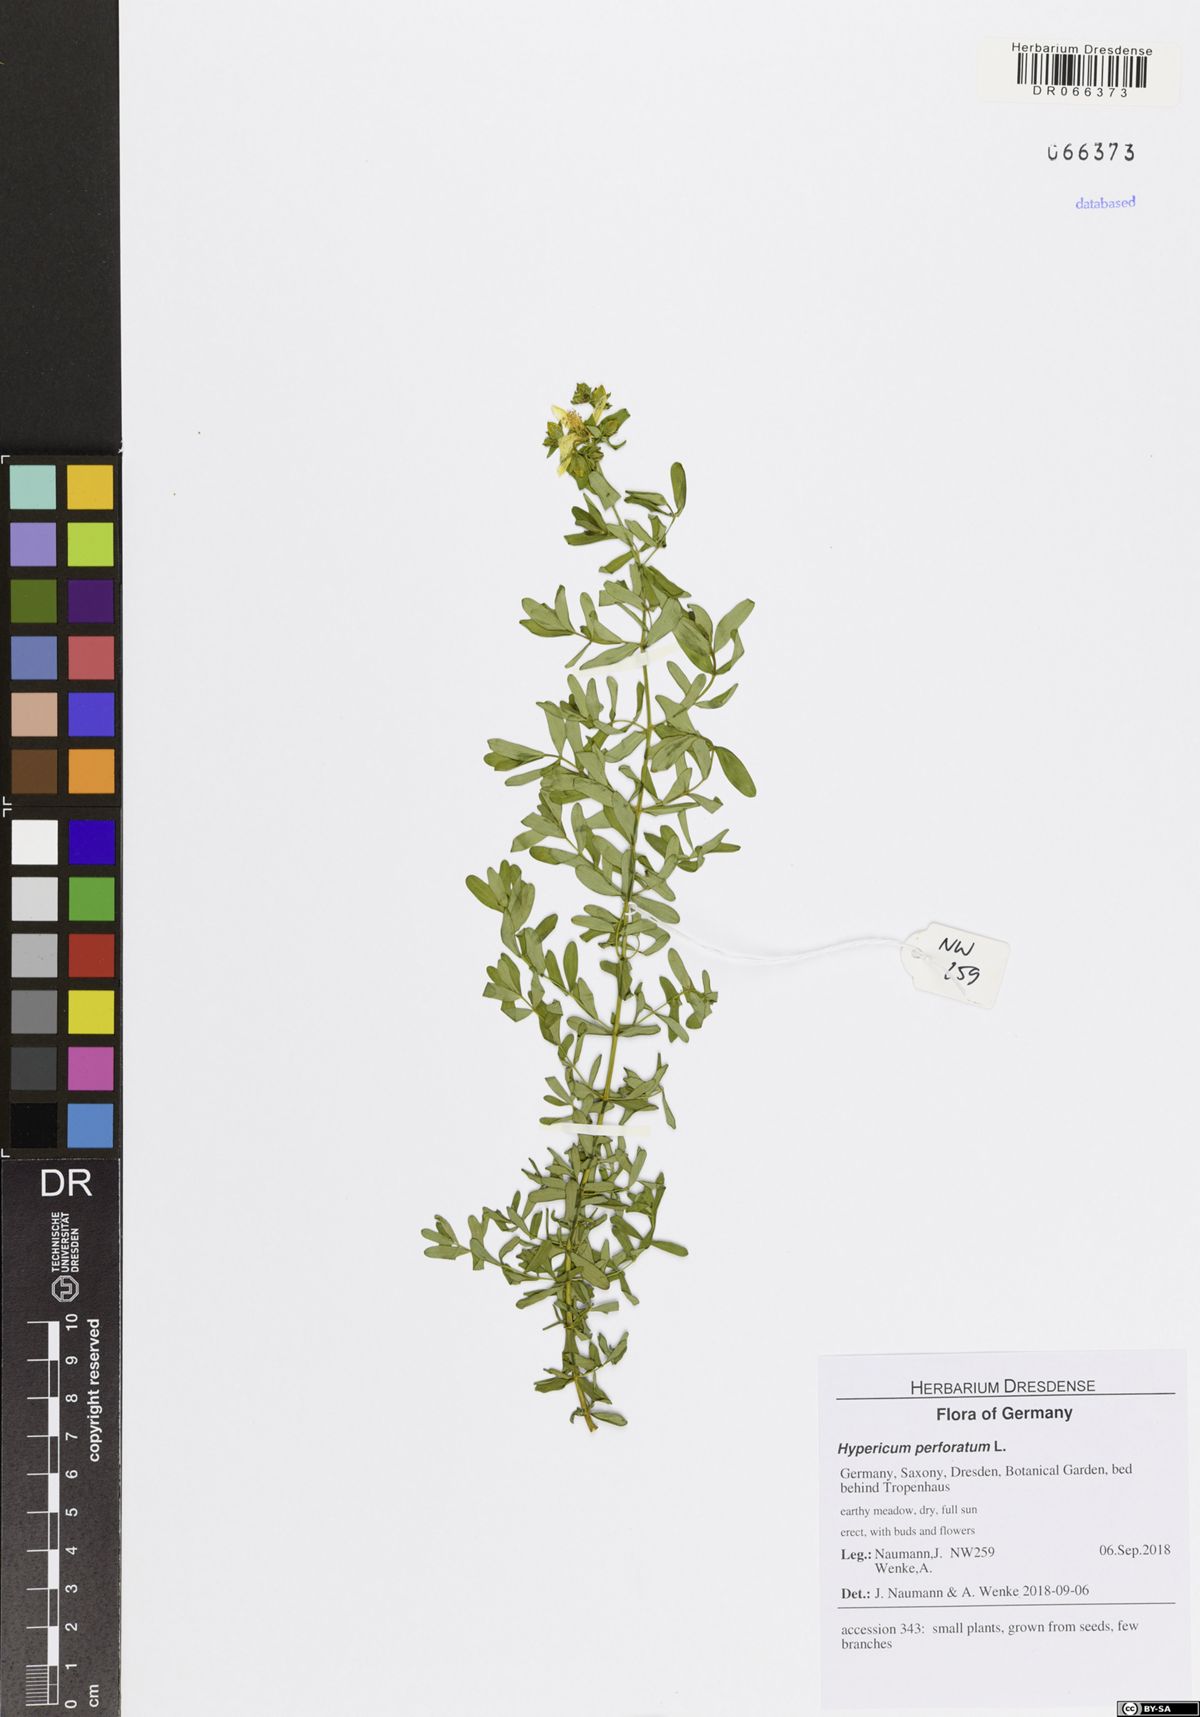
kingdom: Plantae
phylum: Tracheophyta
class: Magnoliopsida
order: Malpighiales
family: Hypericaceae
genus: Hypericum
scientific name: Hypericum perforatum
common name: Common st. johnswort
